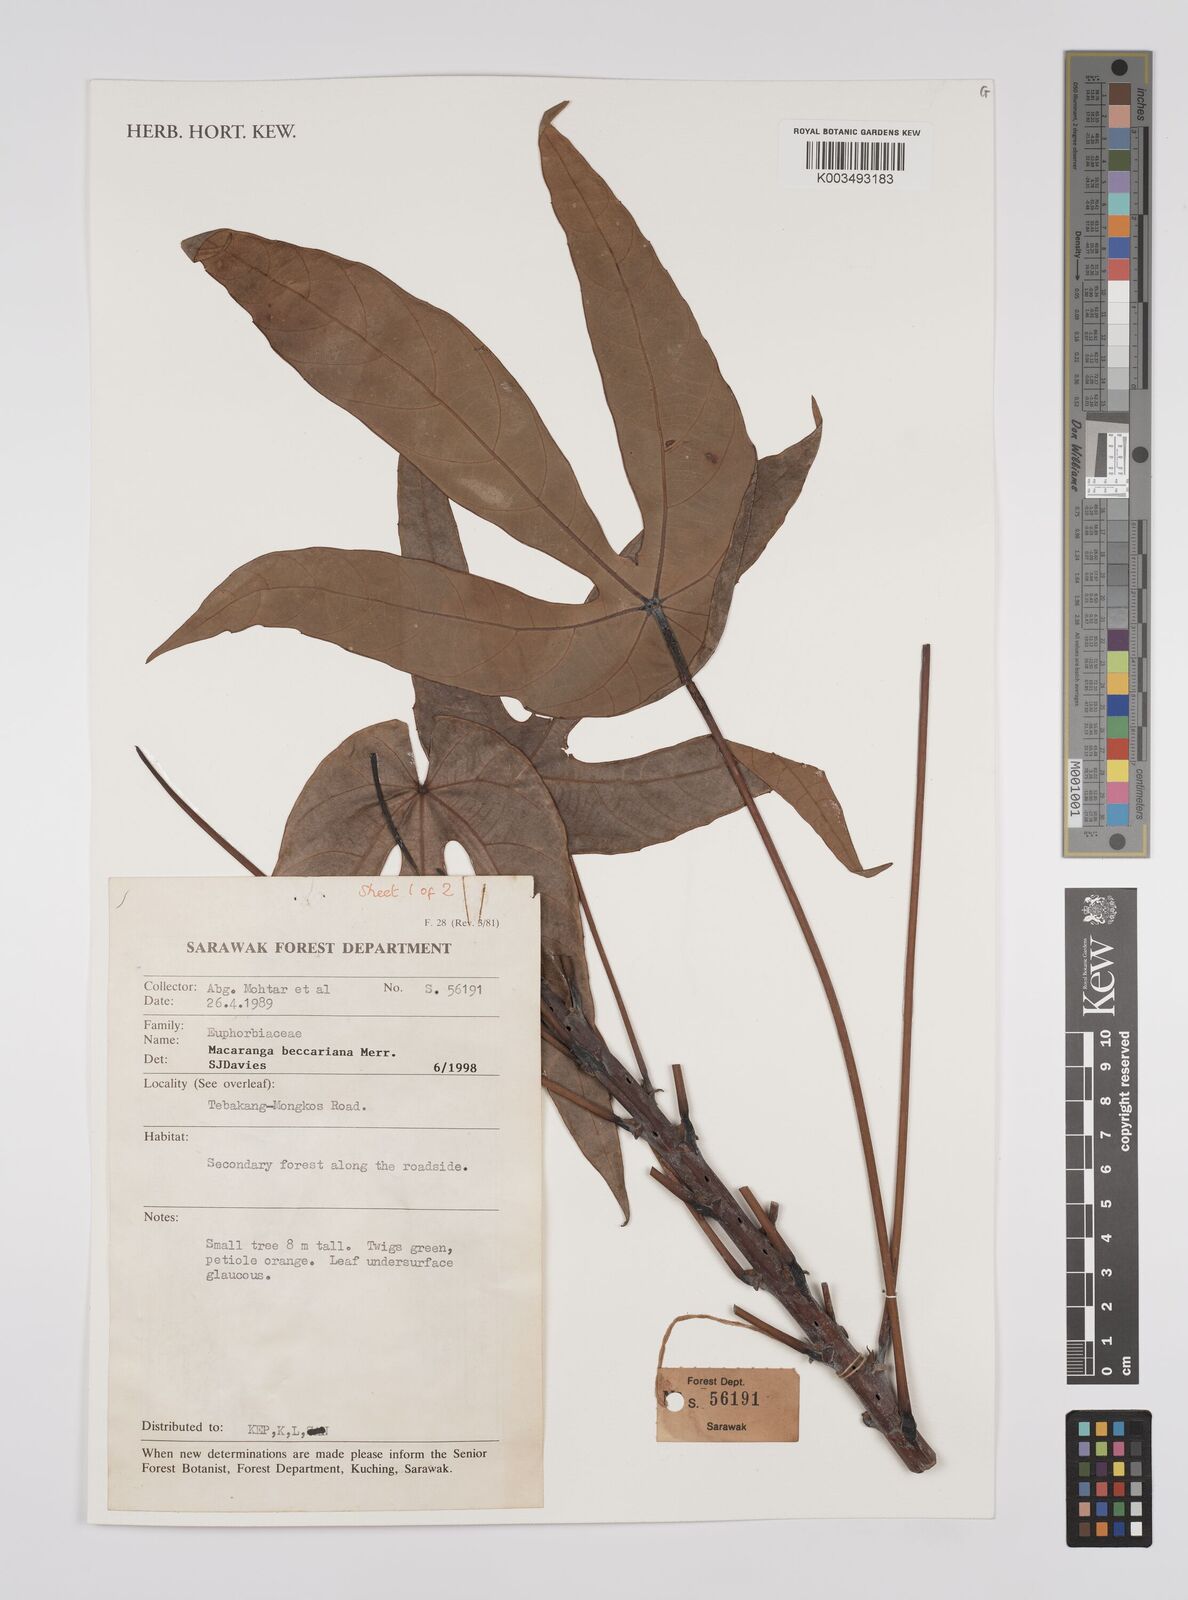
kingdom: Plantae
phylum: Tracheophyta
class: Magnoliopsida
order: Malpighiales
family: Euphorbiaceae
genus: Macaranga
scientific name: Macaranga beccariana
